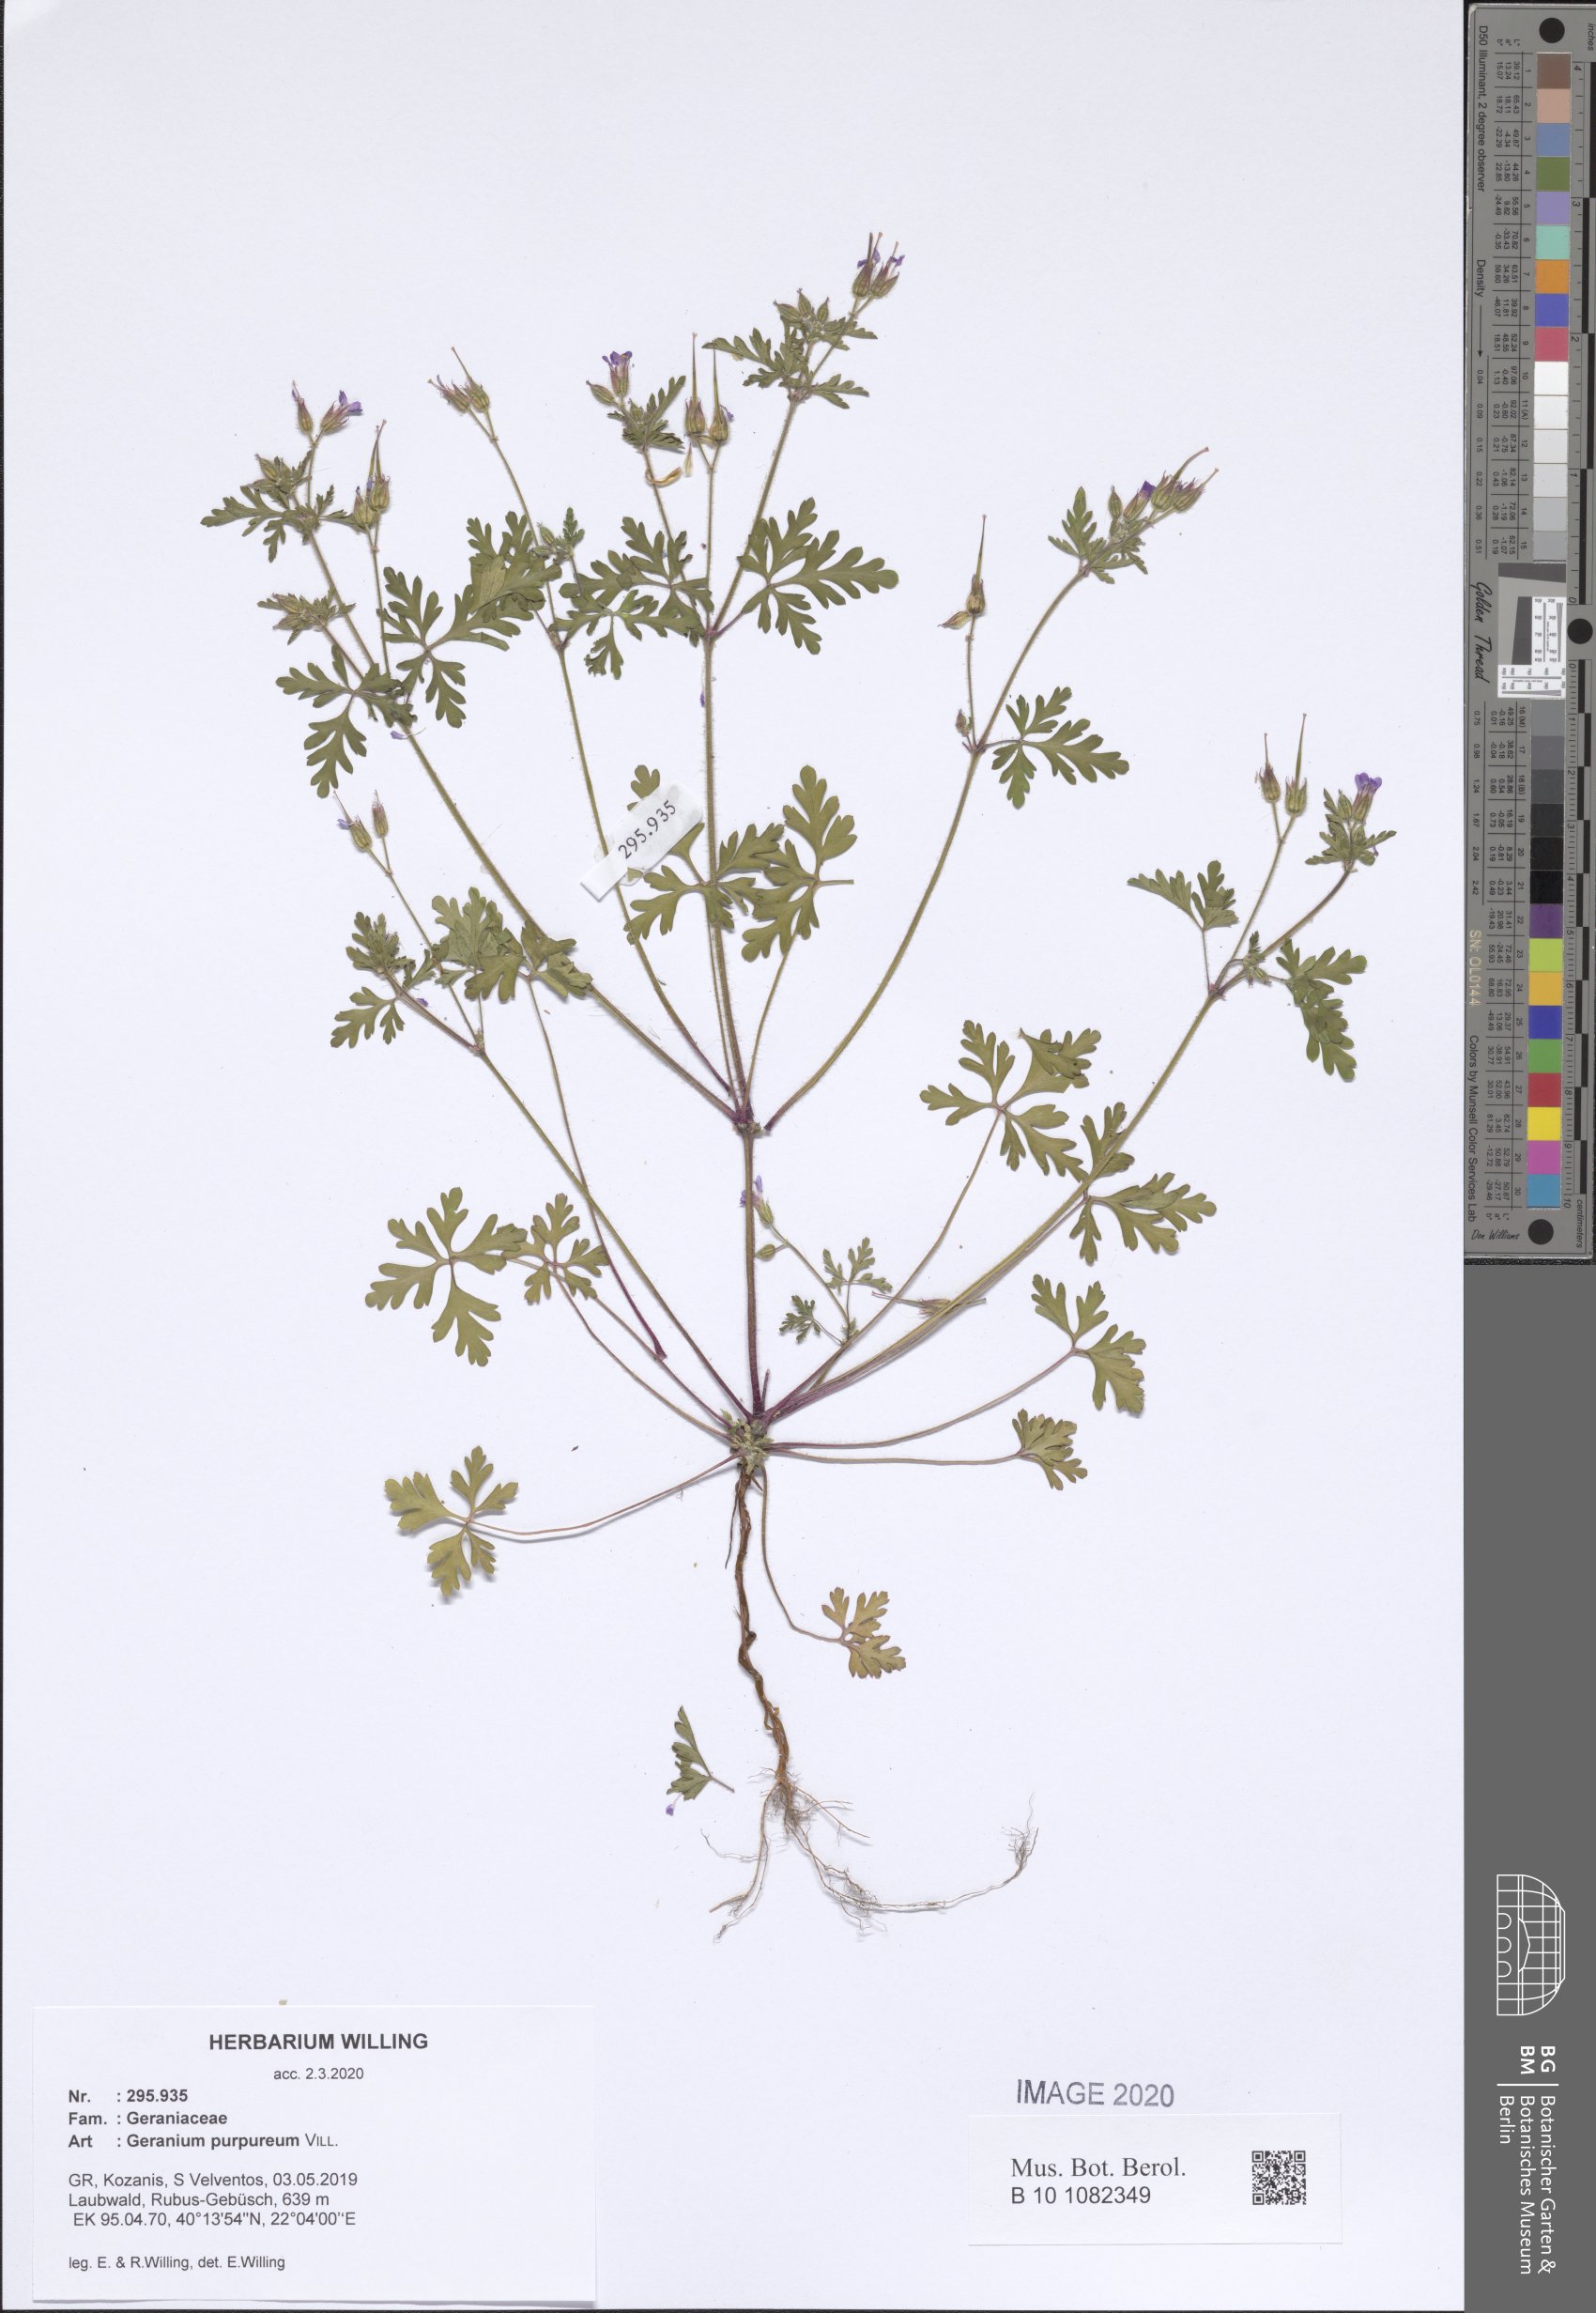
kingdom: Plantae
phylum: Tracheophyta
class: Magnoliopsida
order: Geraniales
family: Geraniaceae
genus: Geranium
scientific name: Geranium purpureum
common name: Little-robin
